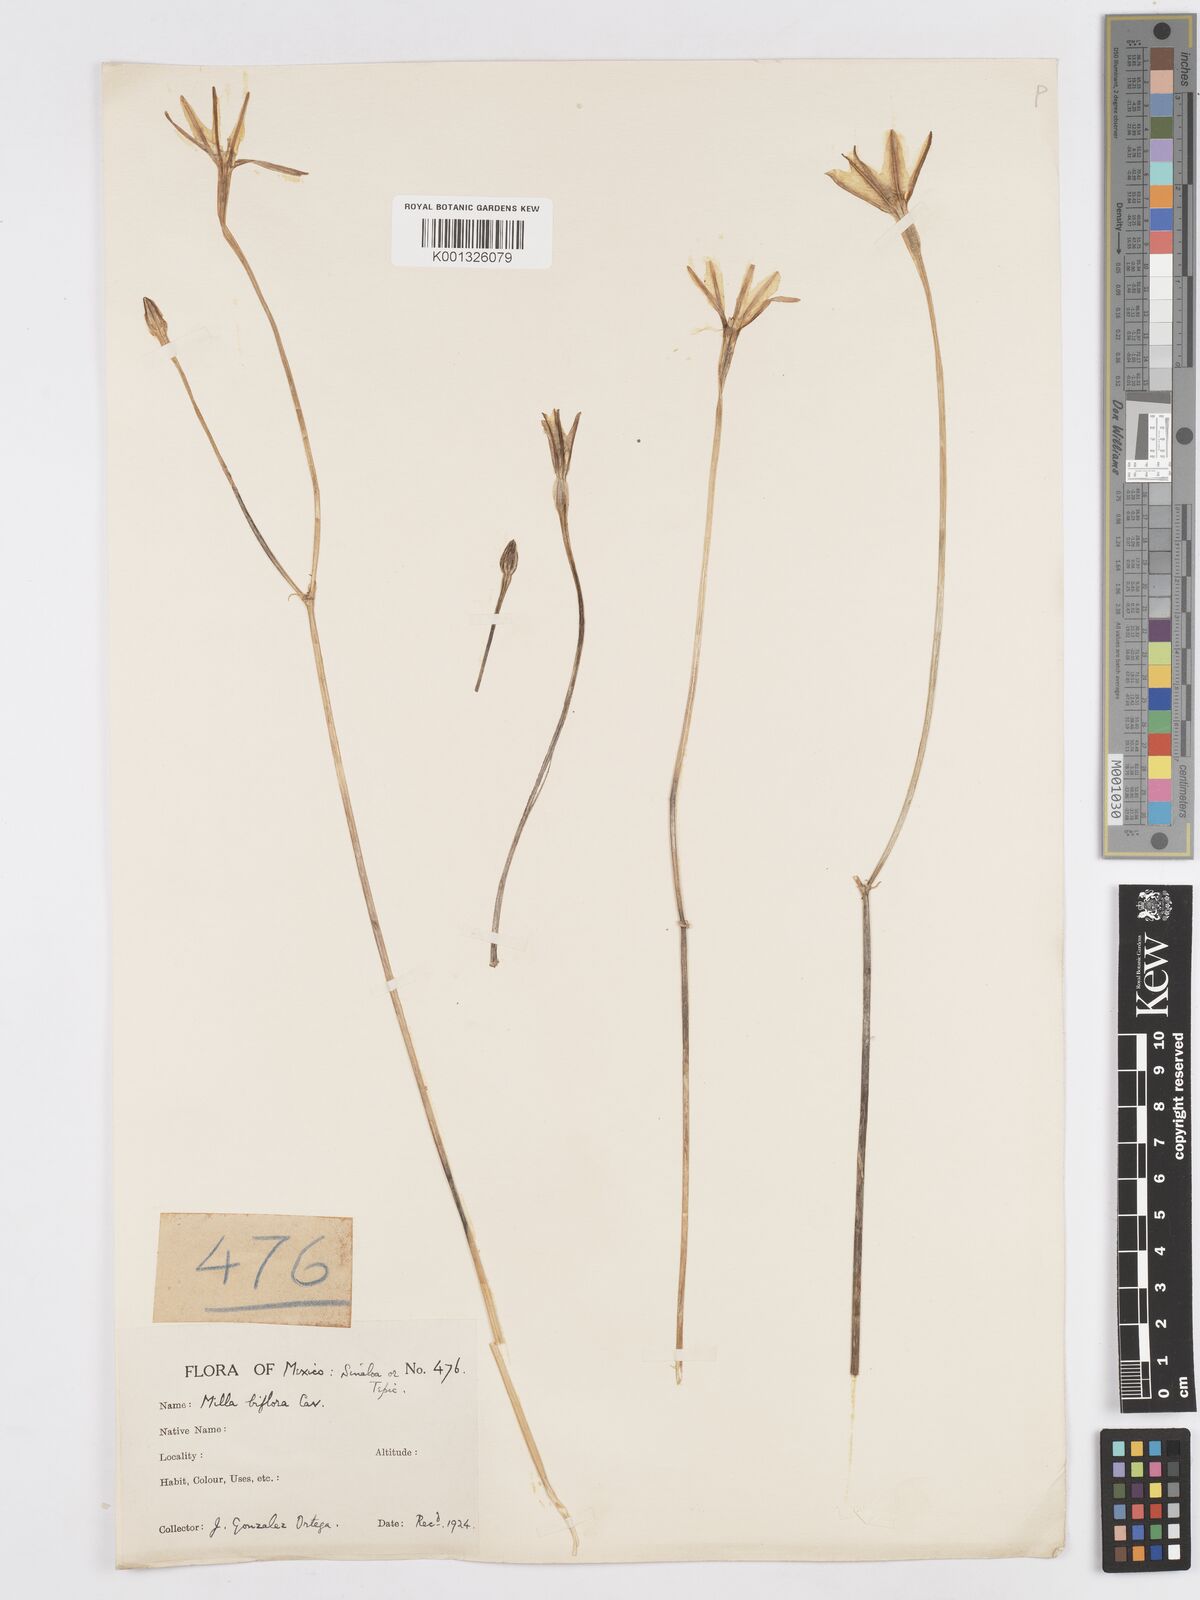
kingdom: Plantae
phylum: Tracheophyta
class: Liliopsida
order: Asparagales
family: Asparagaceae
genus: Milla
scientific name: Milla biflora
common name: Mexican-star
